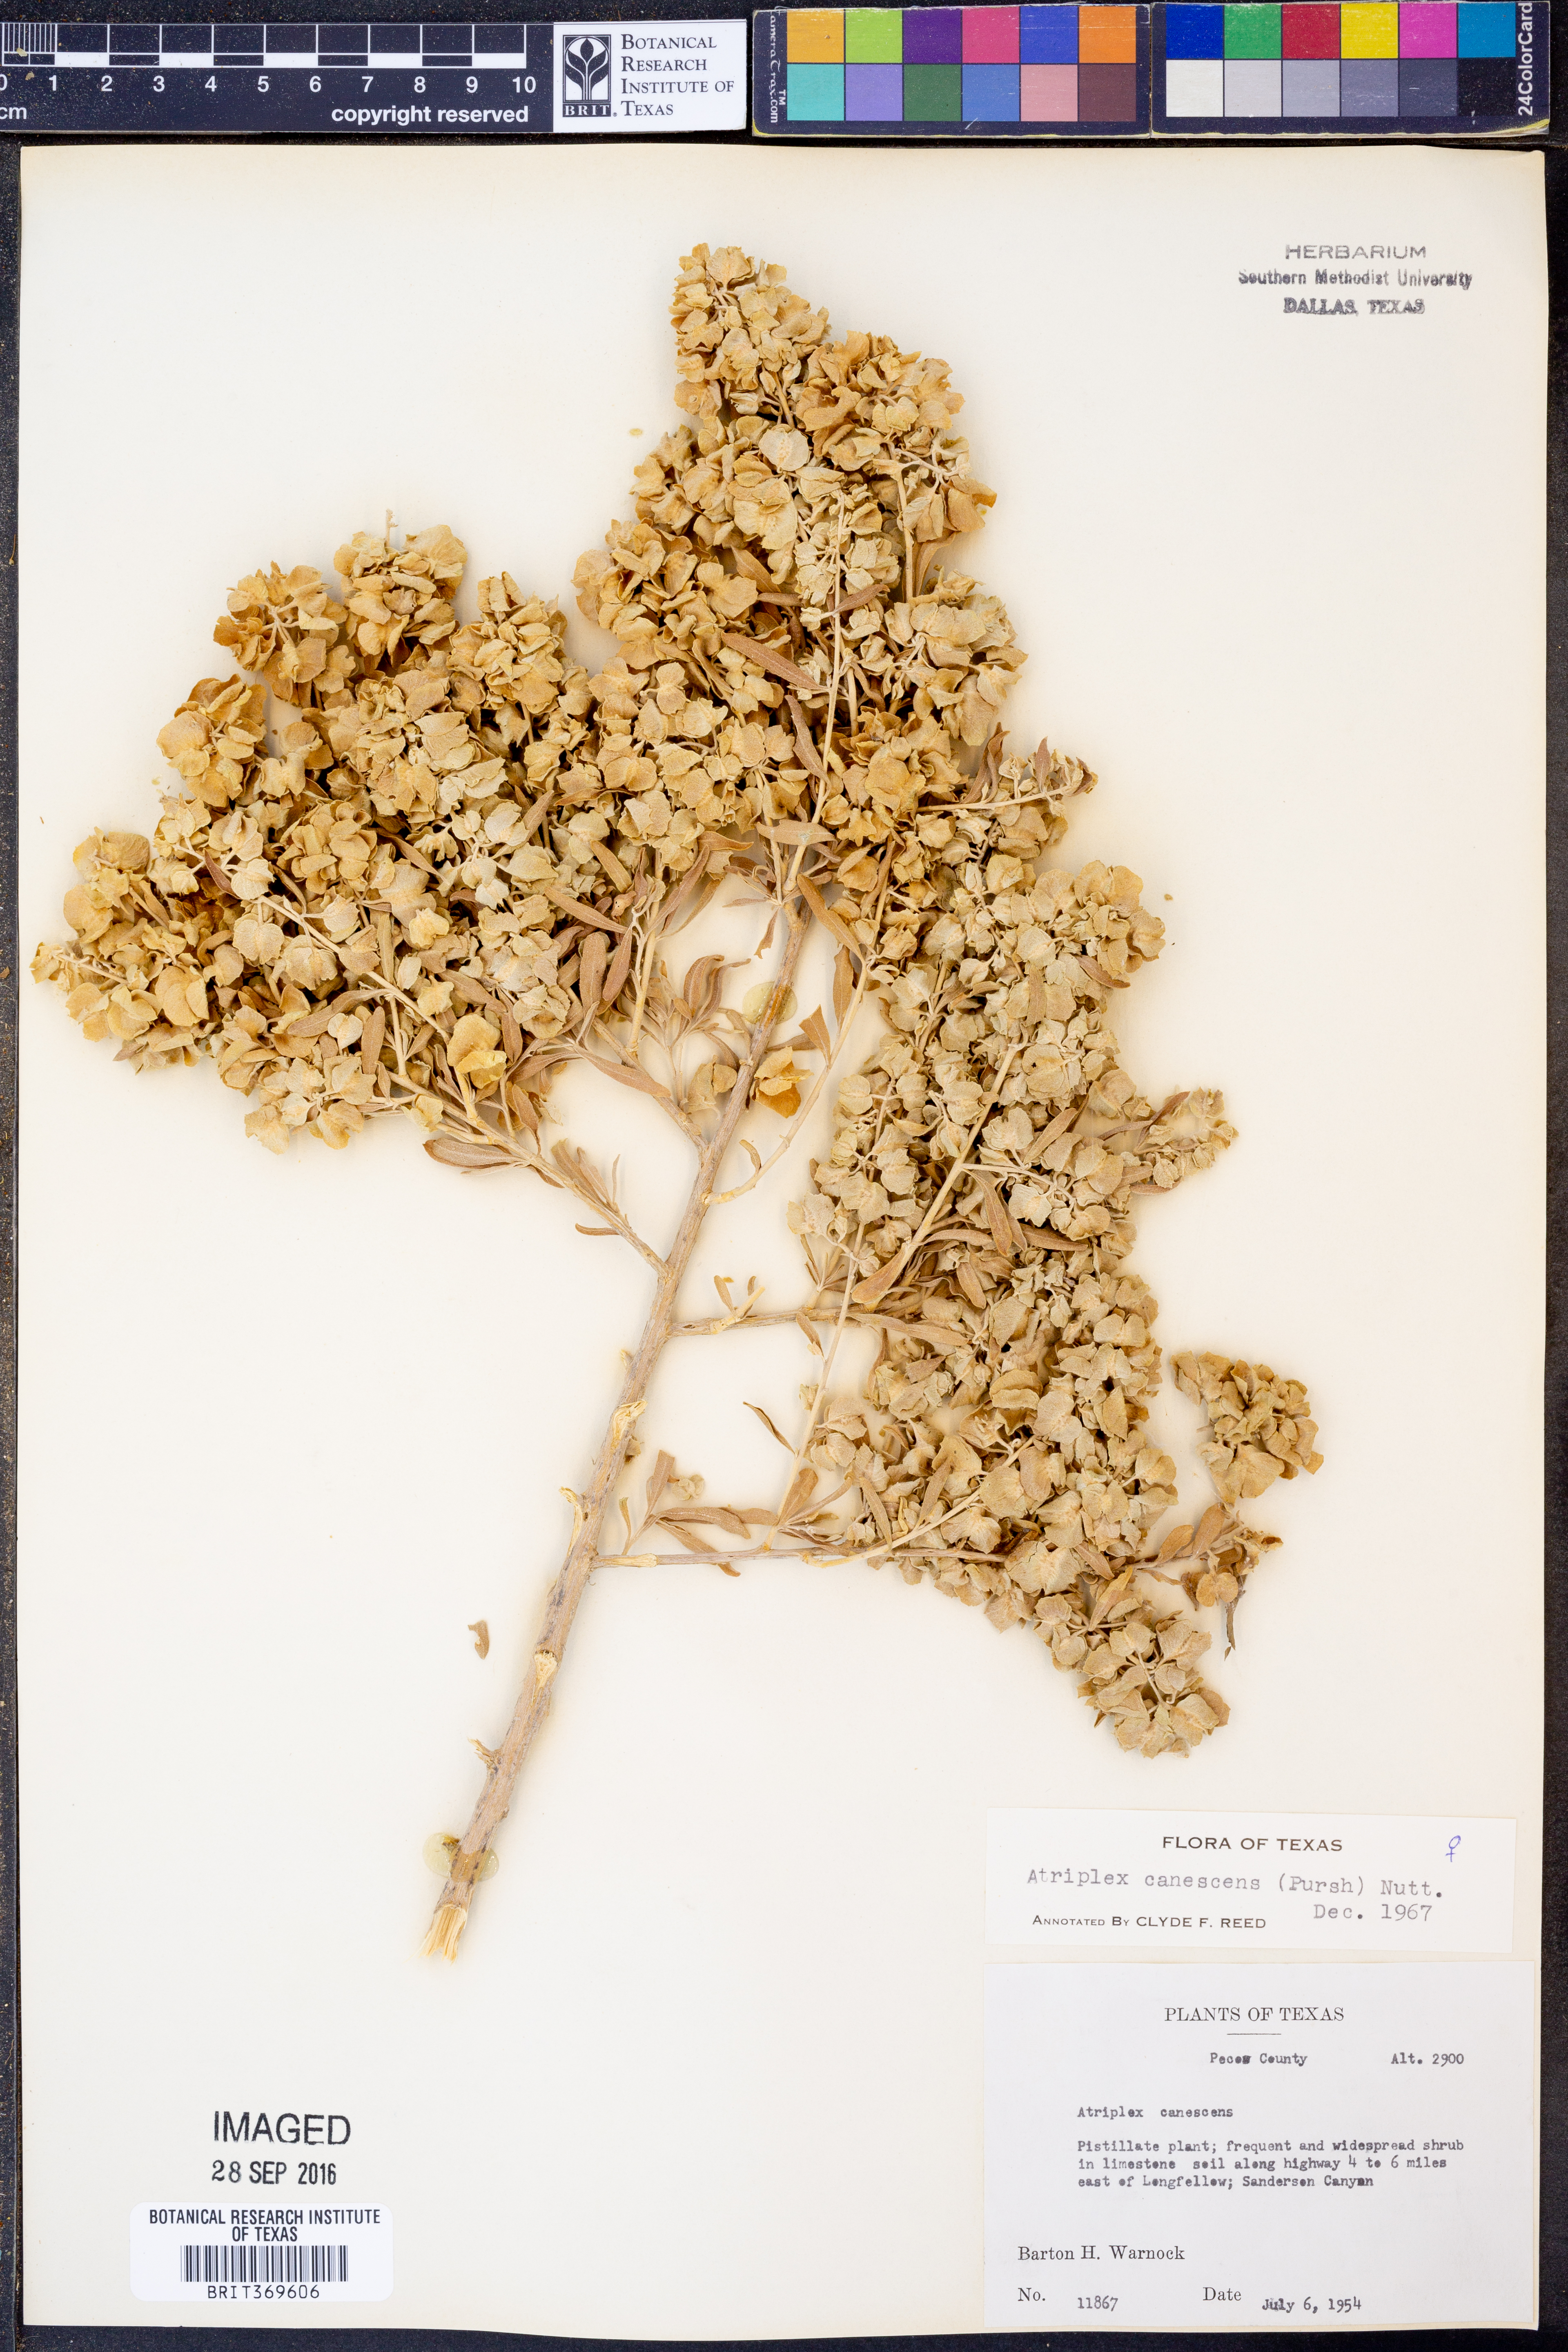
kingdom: Plantae
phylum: Tracheophyta
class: Magnoliopsida
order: Caryophyllales
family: Amaranthaceae
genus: Atriplex
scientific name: Atriplex canescens
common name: Four-wing saltbush
